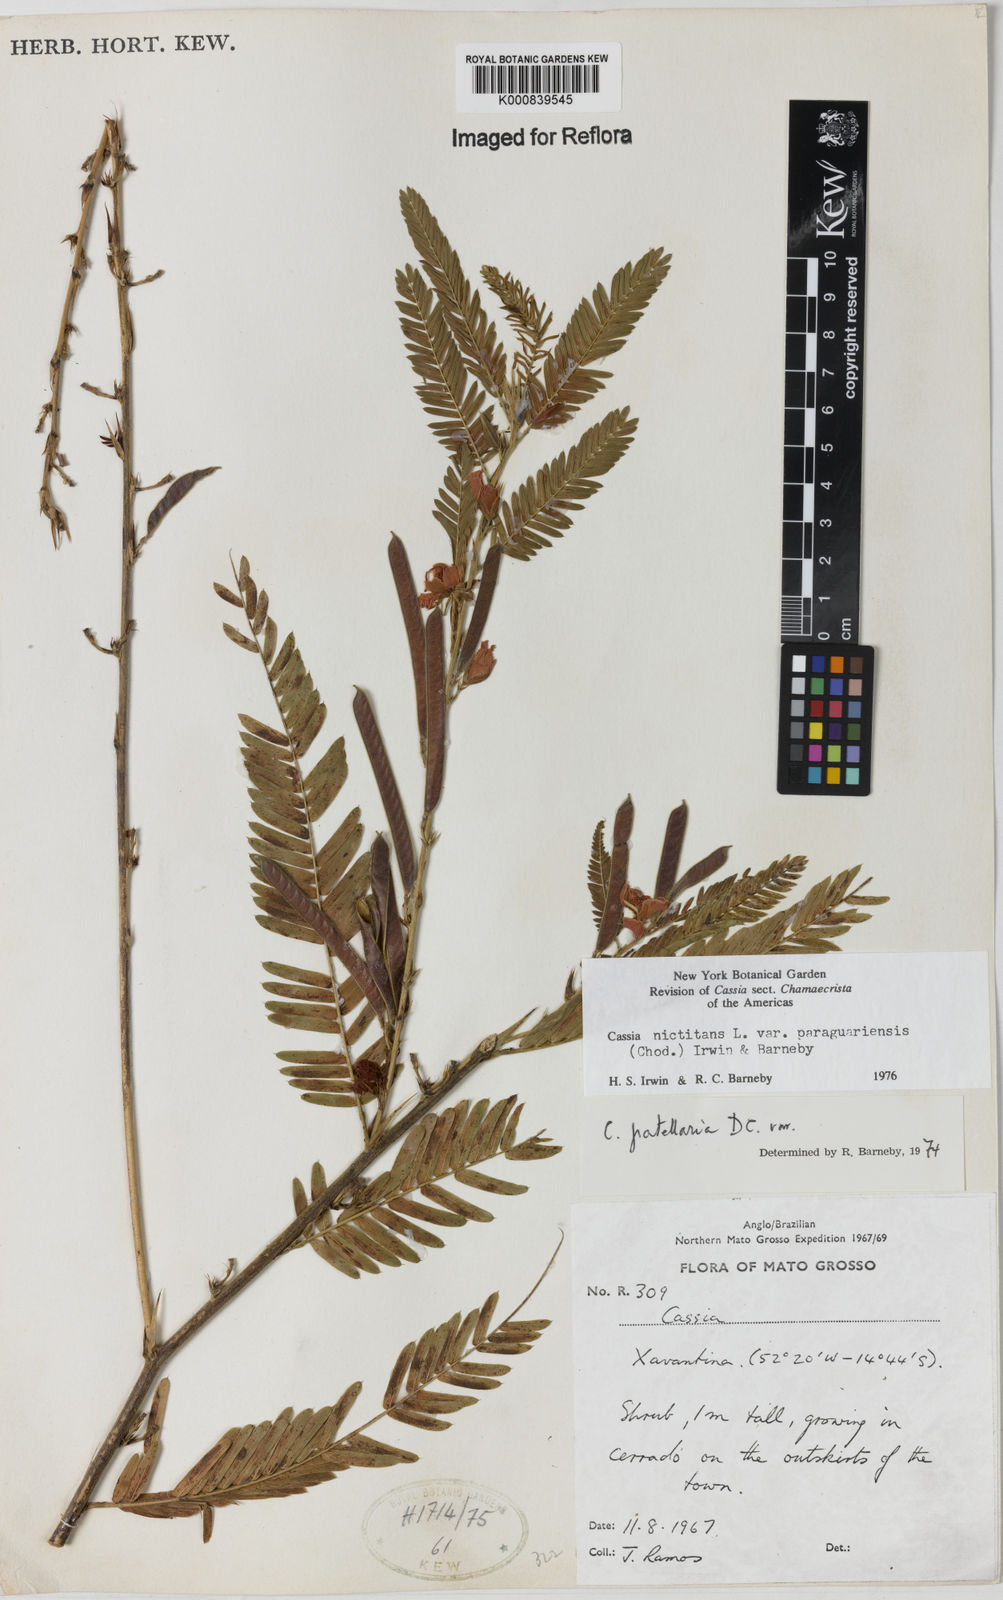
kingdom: Plantae
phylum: Tracheophyta
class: Magnoliopsida
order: Fabales
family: Fabaceae
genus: Chamaecrista
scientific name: Chamaecrista nictitans
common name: Sensitive cassia
